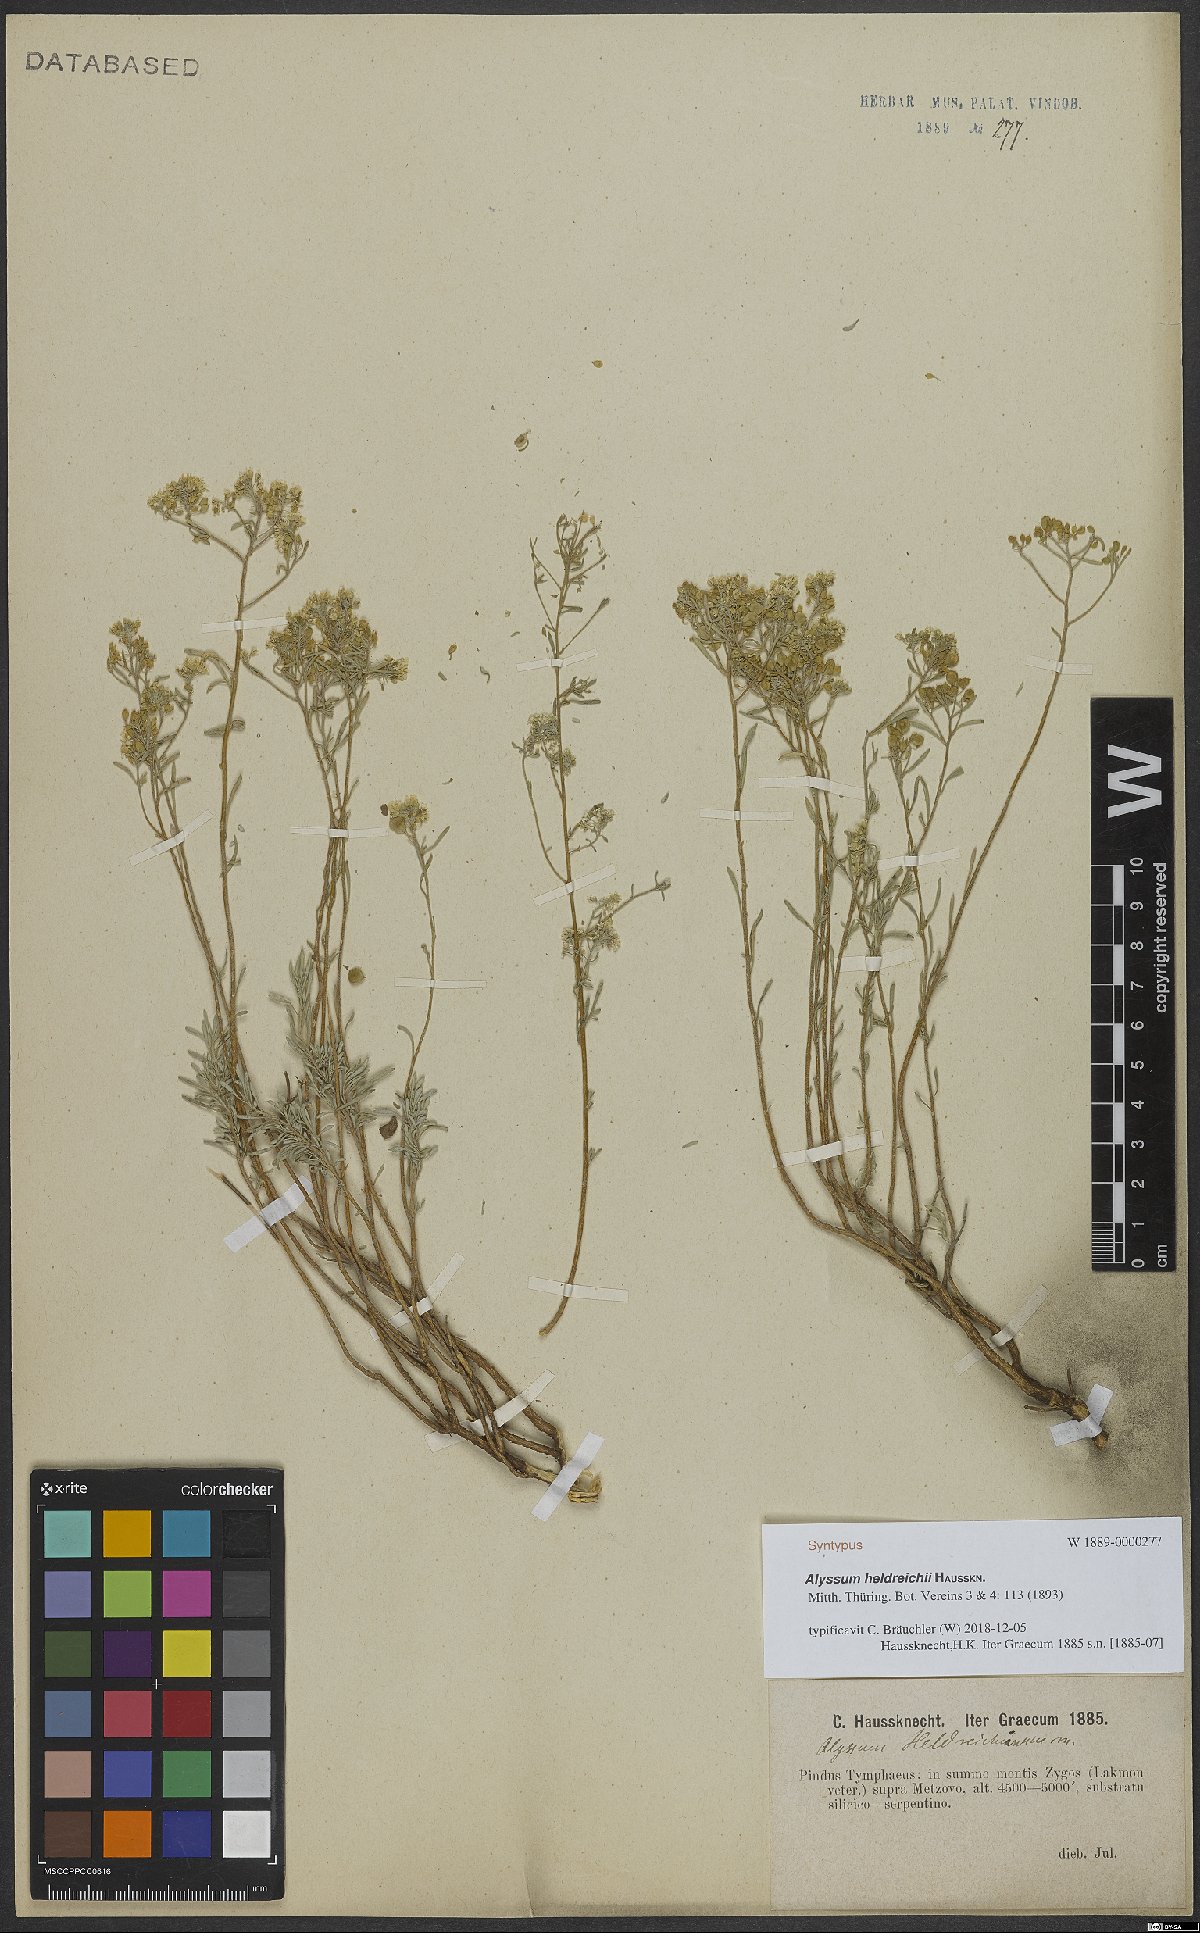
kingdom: Plantae
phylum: Tracheophyta
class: Magnoliopsida
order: Brassicales
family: Brassicaceae
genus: Odontarrhena
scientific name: Odontarrhena heldreichii
